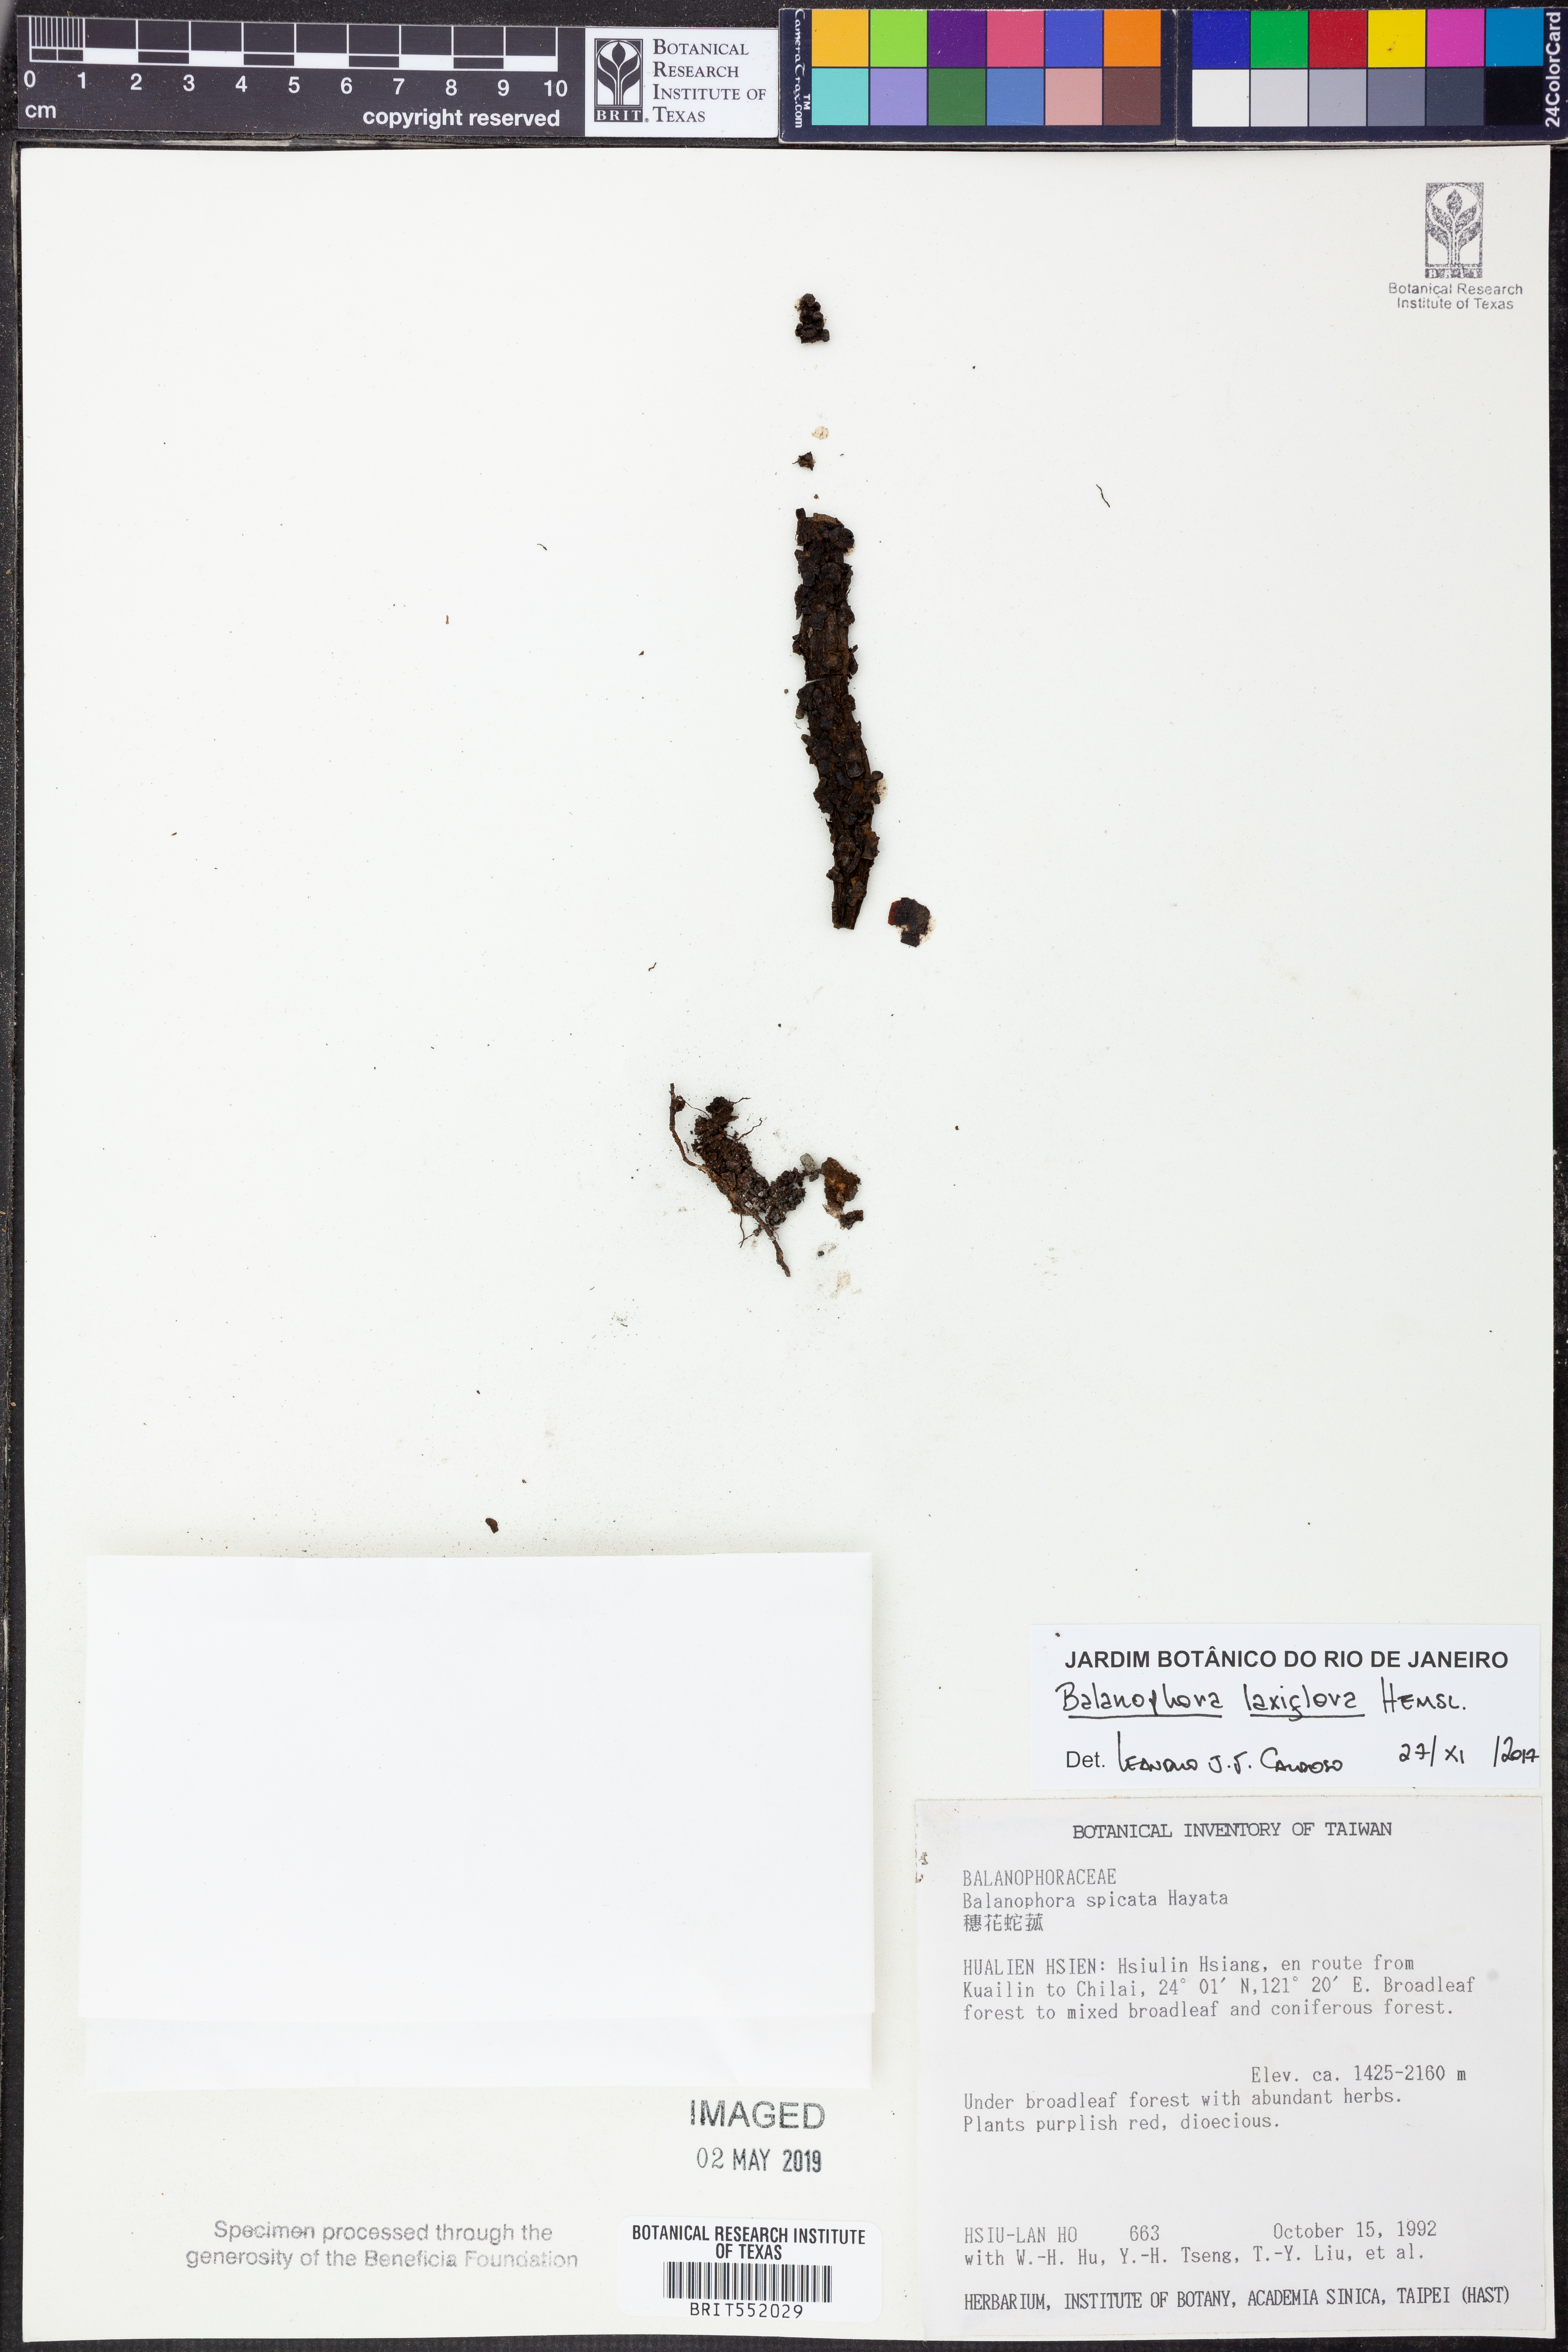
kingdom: Plantae
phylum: Tracheophyta
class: Magnoliopsida
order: Santalales
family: Balanophoraceae
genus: Balanophora
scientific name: Balanophora laxiflora
